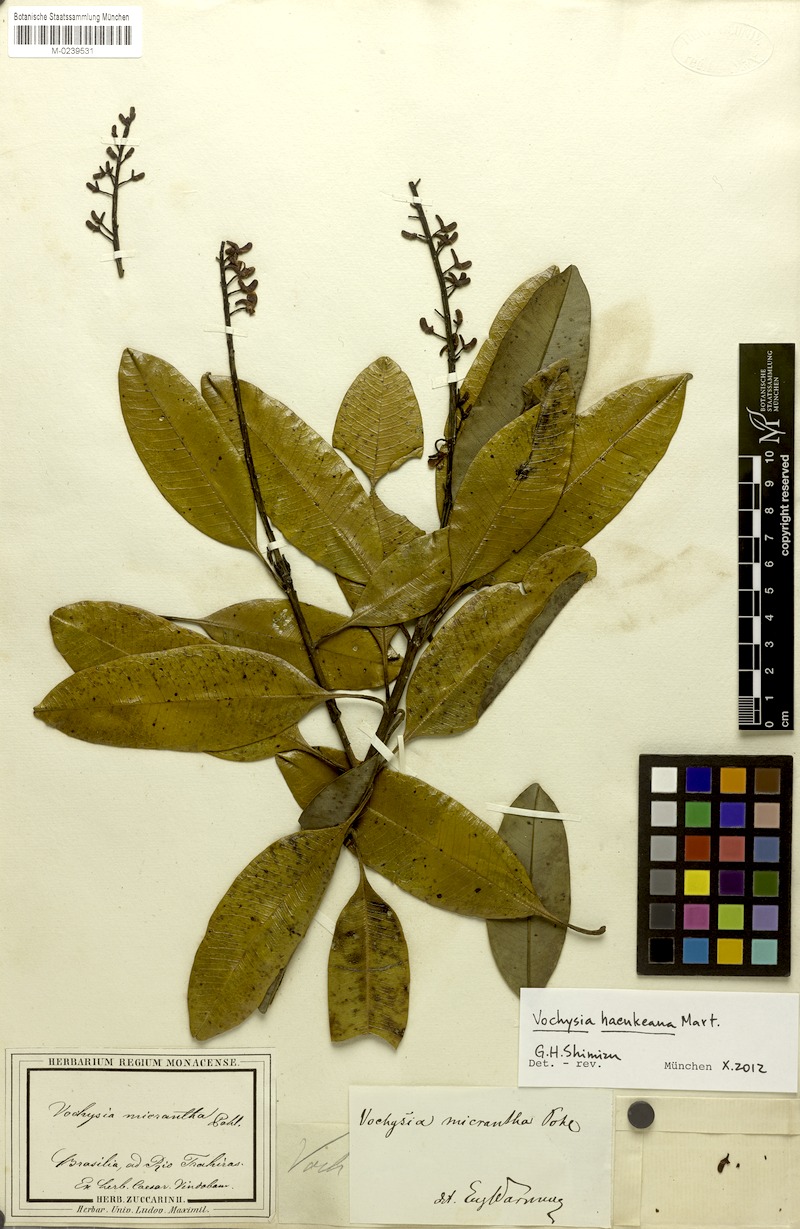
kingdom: Plantae
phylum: Tracheophyta
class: Magnoliopsida
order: Myrtales
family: Vochysiaceae
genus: Vochysia
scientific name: Vochysia haenkeana
